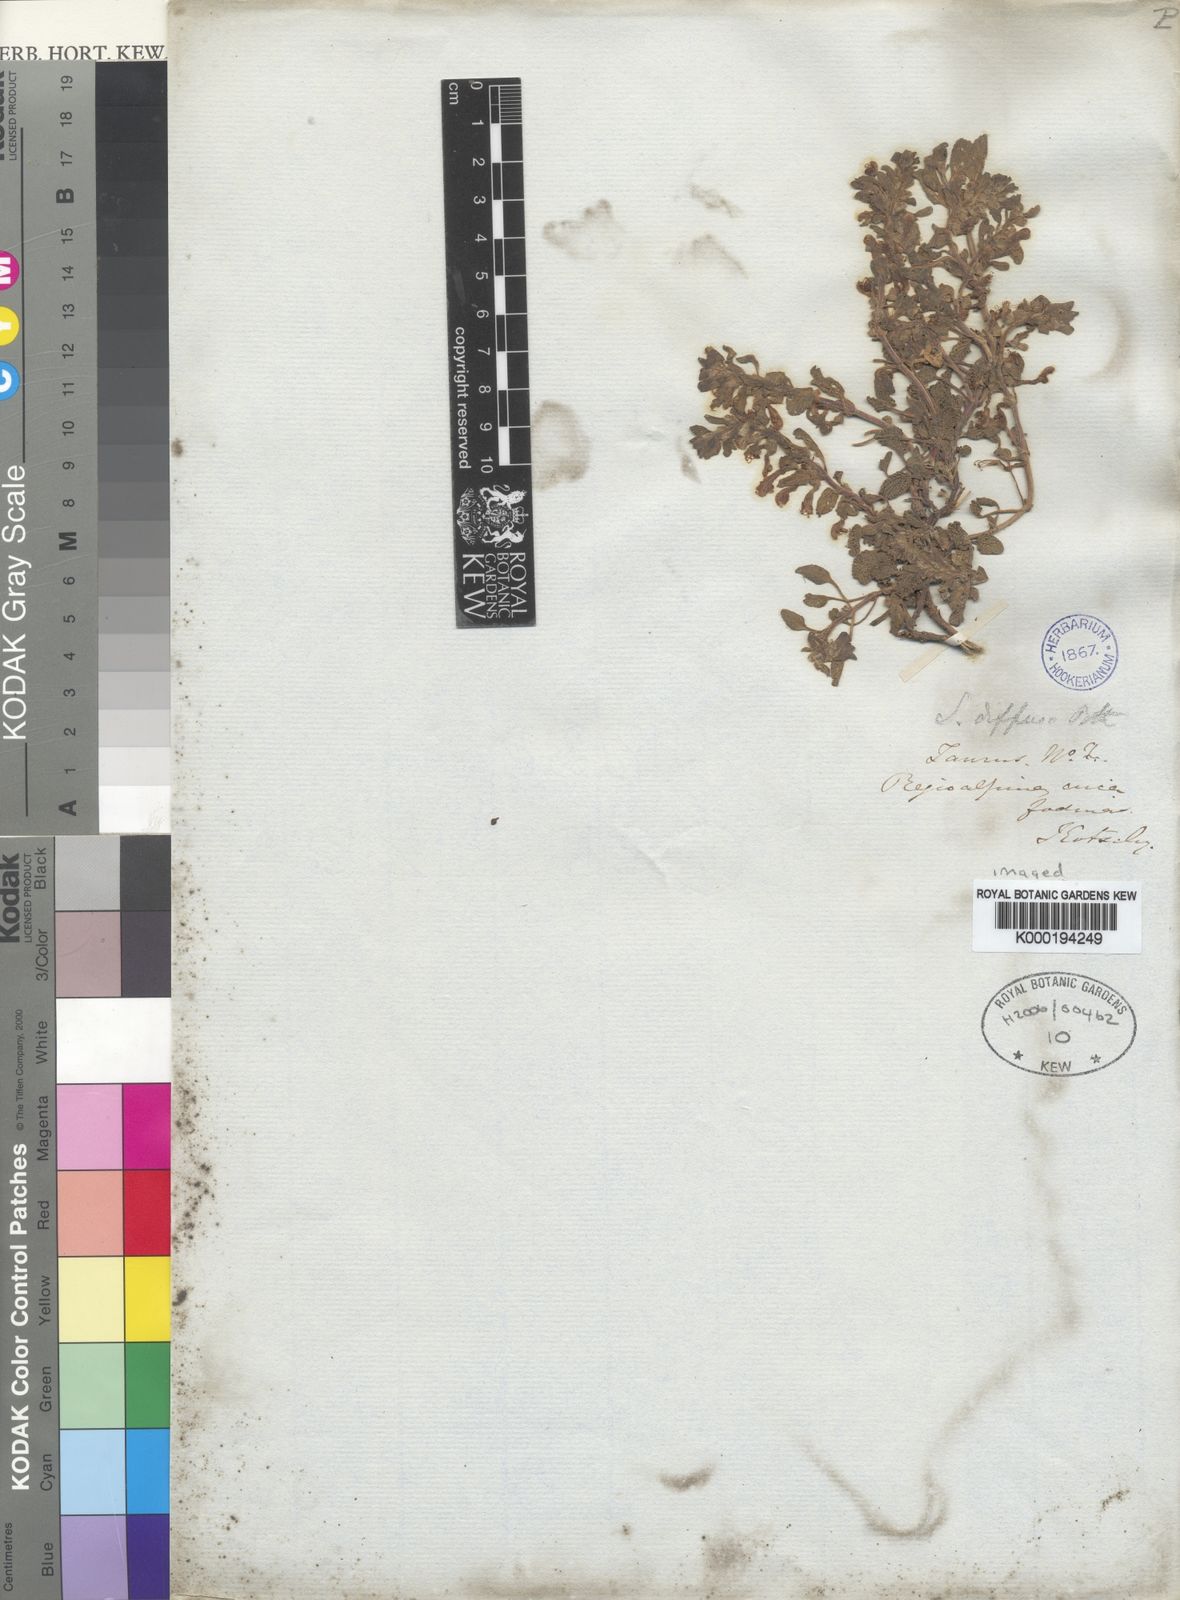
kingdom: Plantae
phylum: Tracheophyta
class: Magnoliopsida
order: Lamiales
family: Lamiaceae
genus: Scutellaria
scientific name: Scutellaria diffusa
